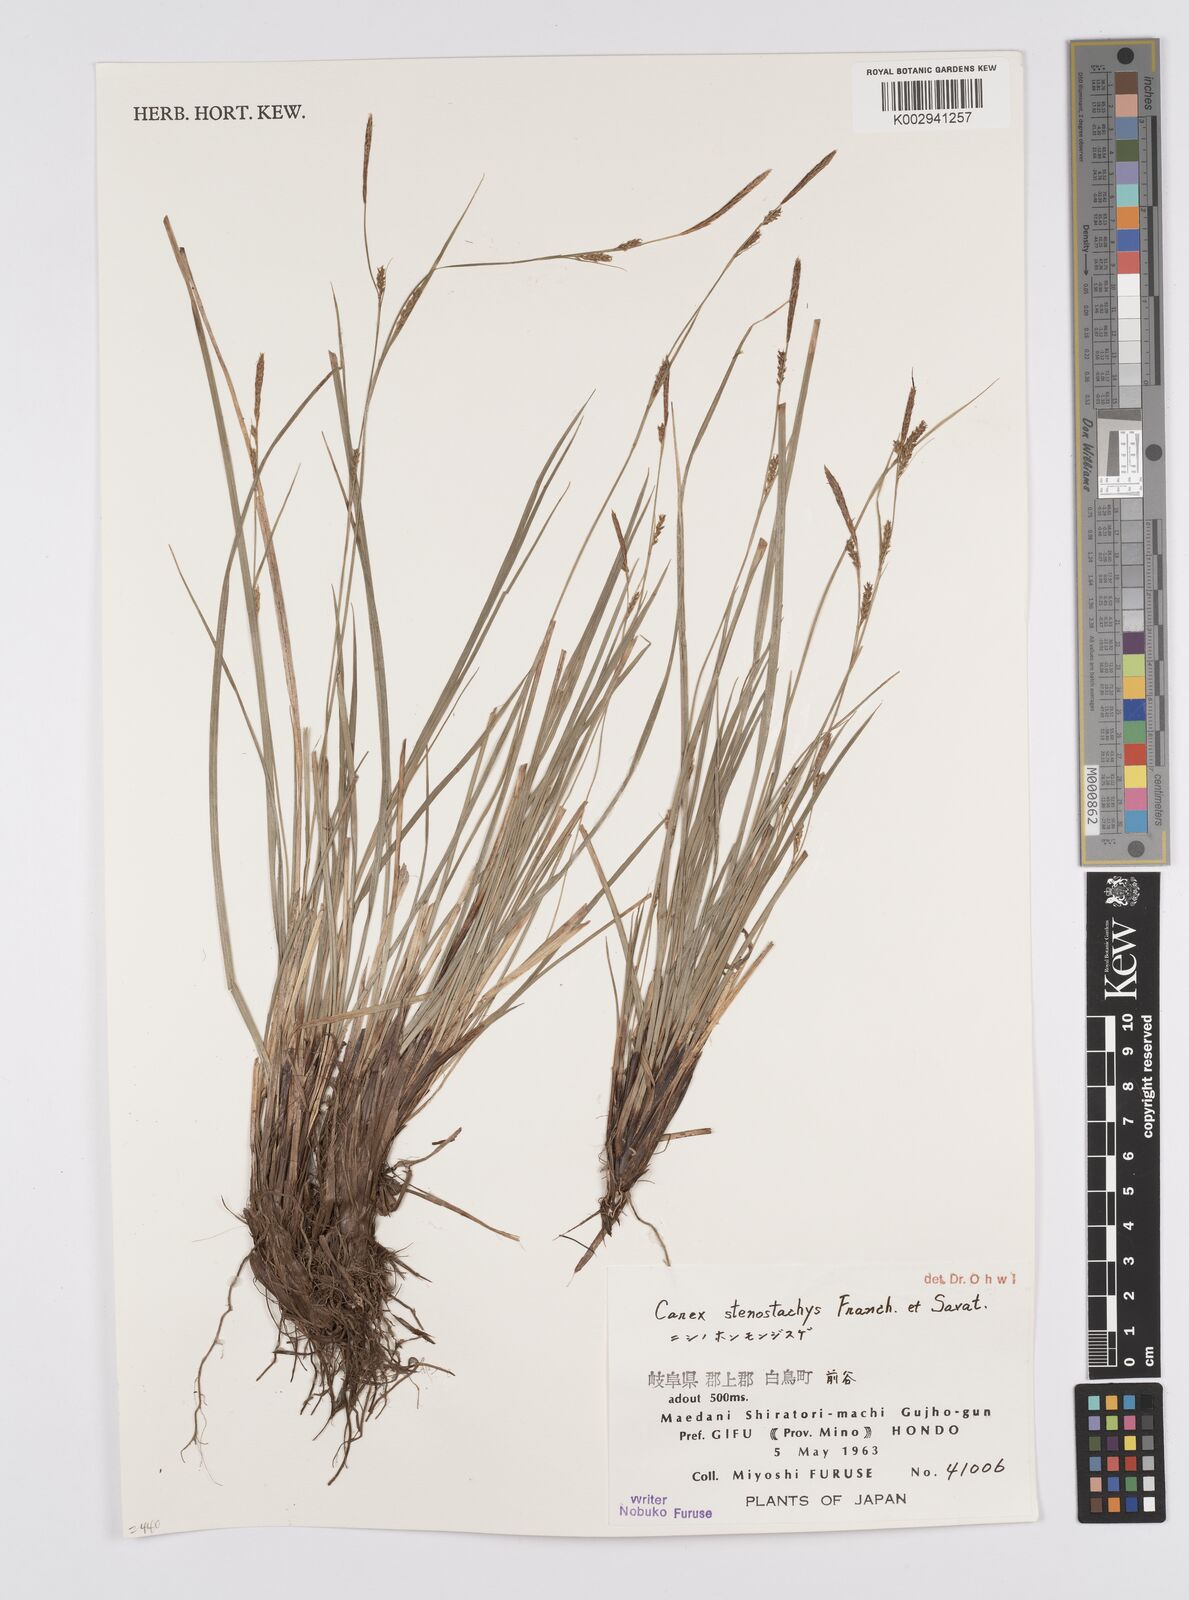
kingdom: Plantae
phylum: Tracheophyta
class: Liliopsida
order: Poales
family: Cyperaceae
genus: Carex
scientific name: Carex pisiformis
